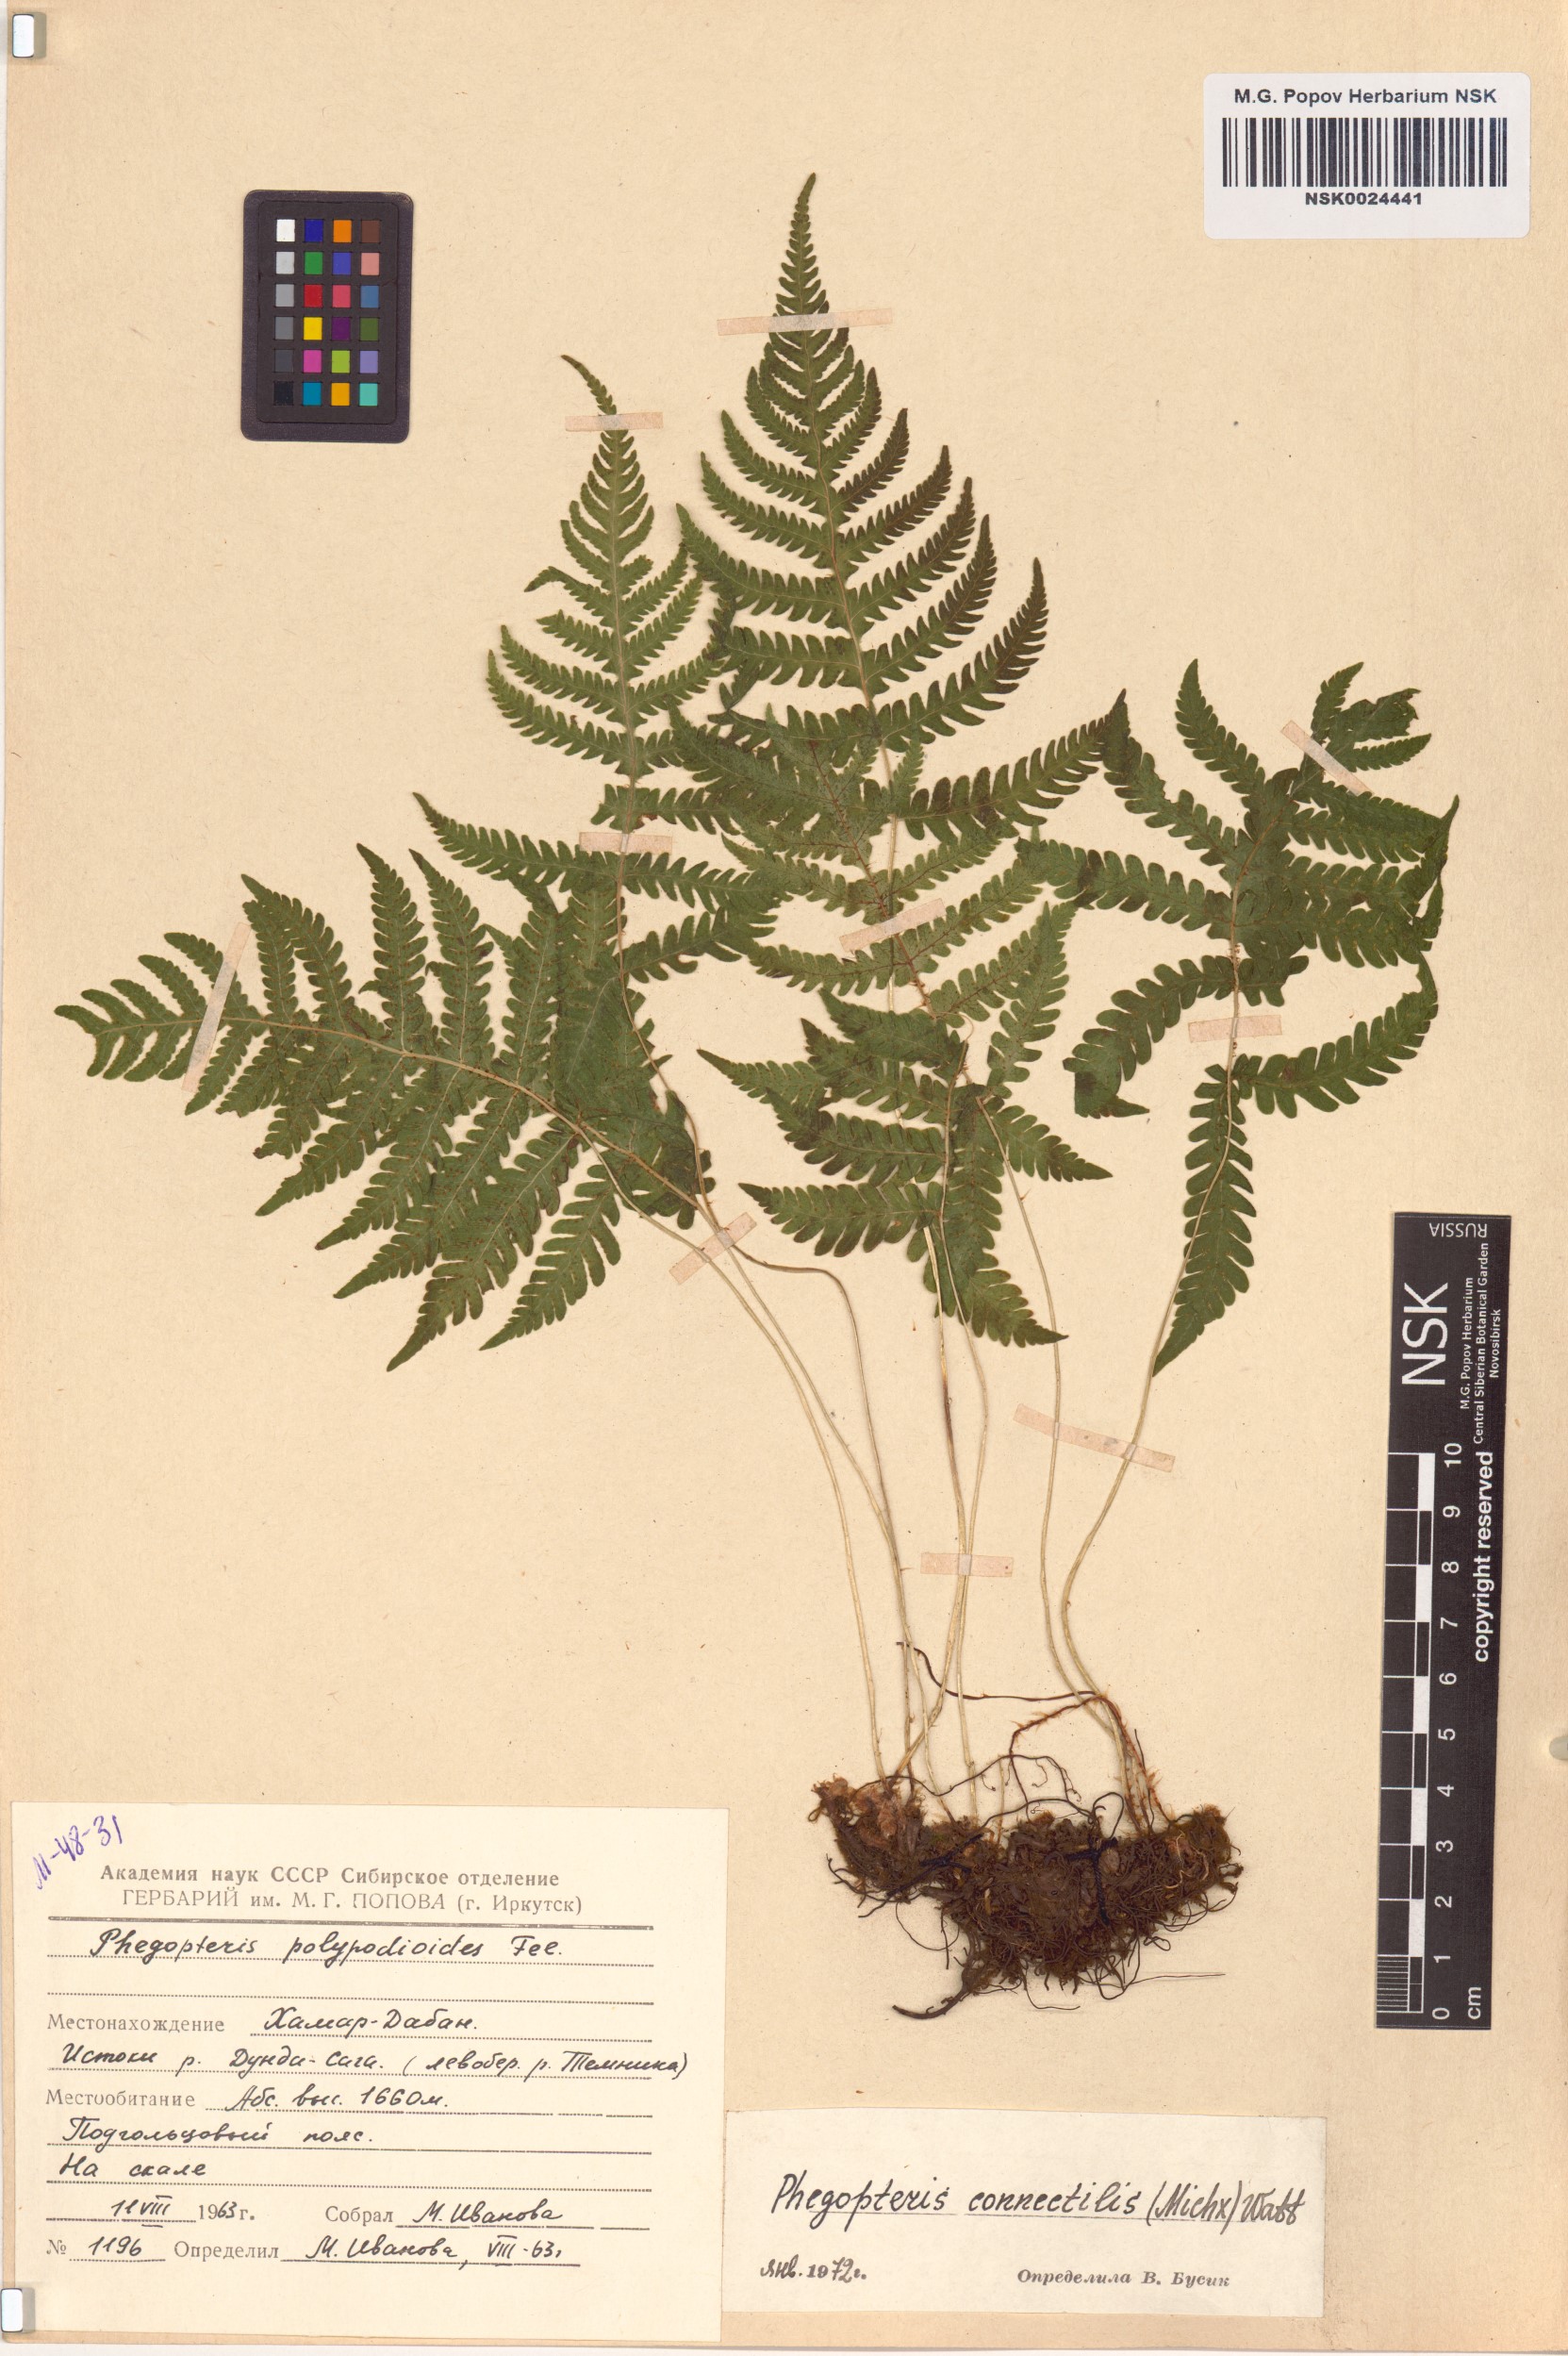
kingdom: Plantae
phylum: Tracheophyta
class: Polypodiopsida
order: Polypodiales
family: Thelypteridaceae
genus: Phegopteris
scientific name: Phegopteris connectilis
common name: Beech fern
